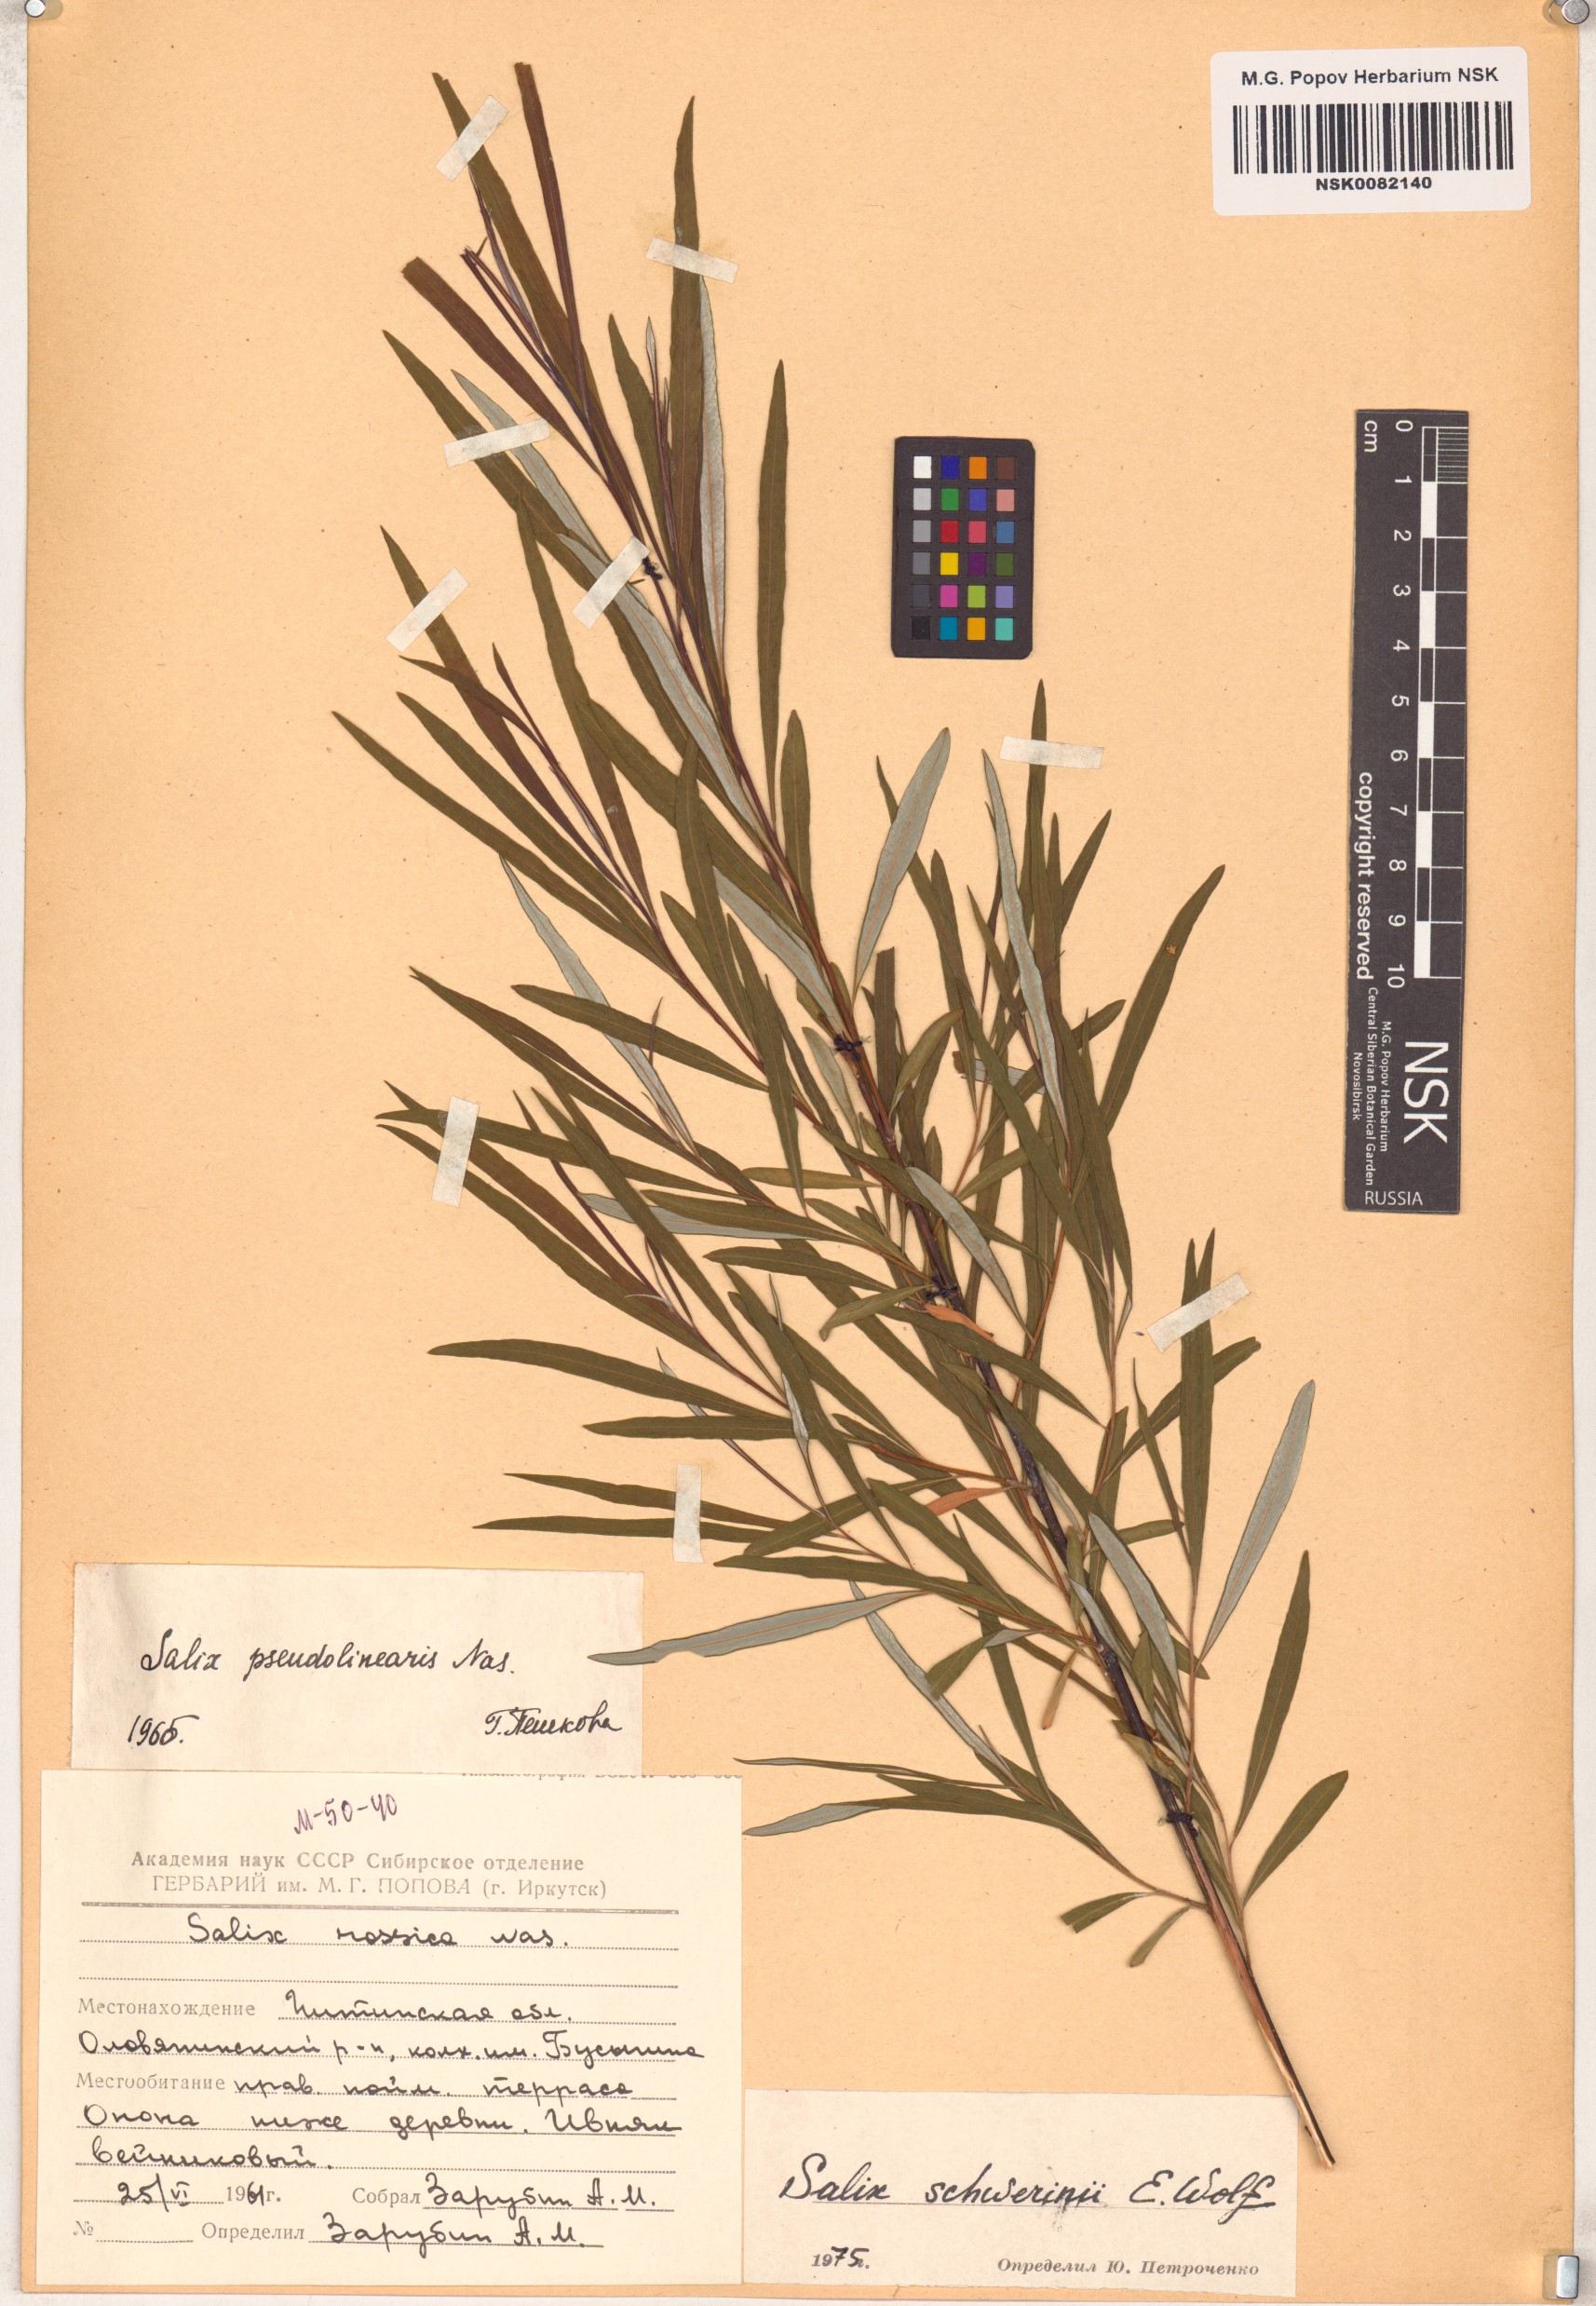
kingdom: Plantae
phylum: Tracheophyta
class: Magnoliopsida
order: Malpighiales
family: Salicaceae
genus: Salix
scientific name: Salix schwerinii
